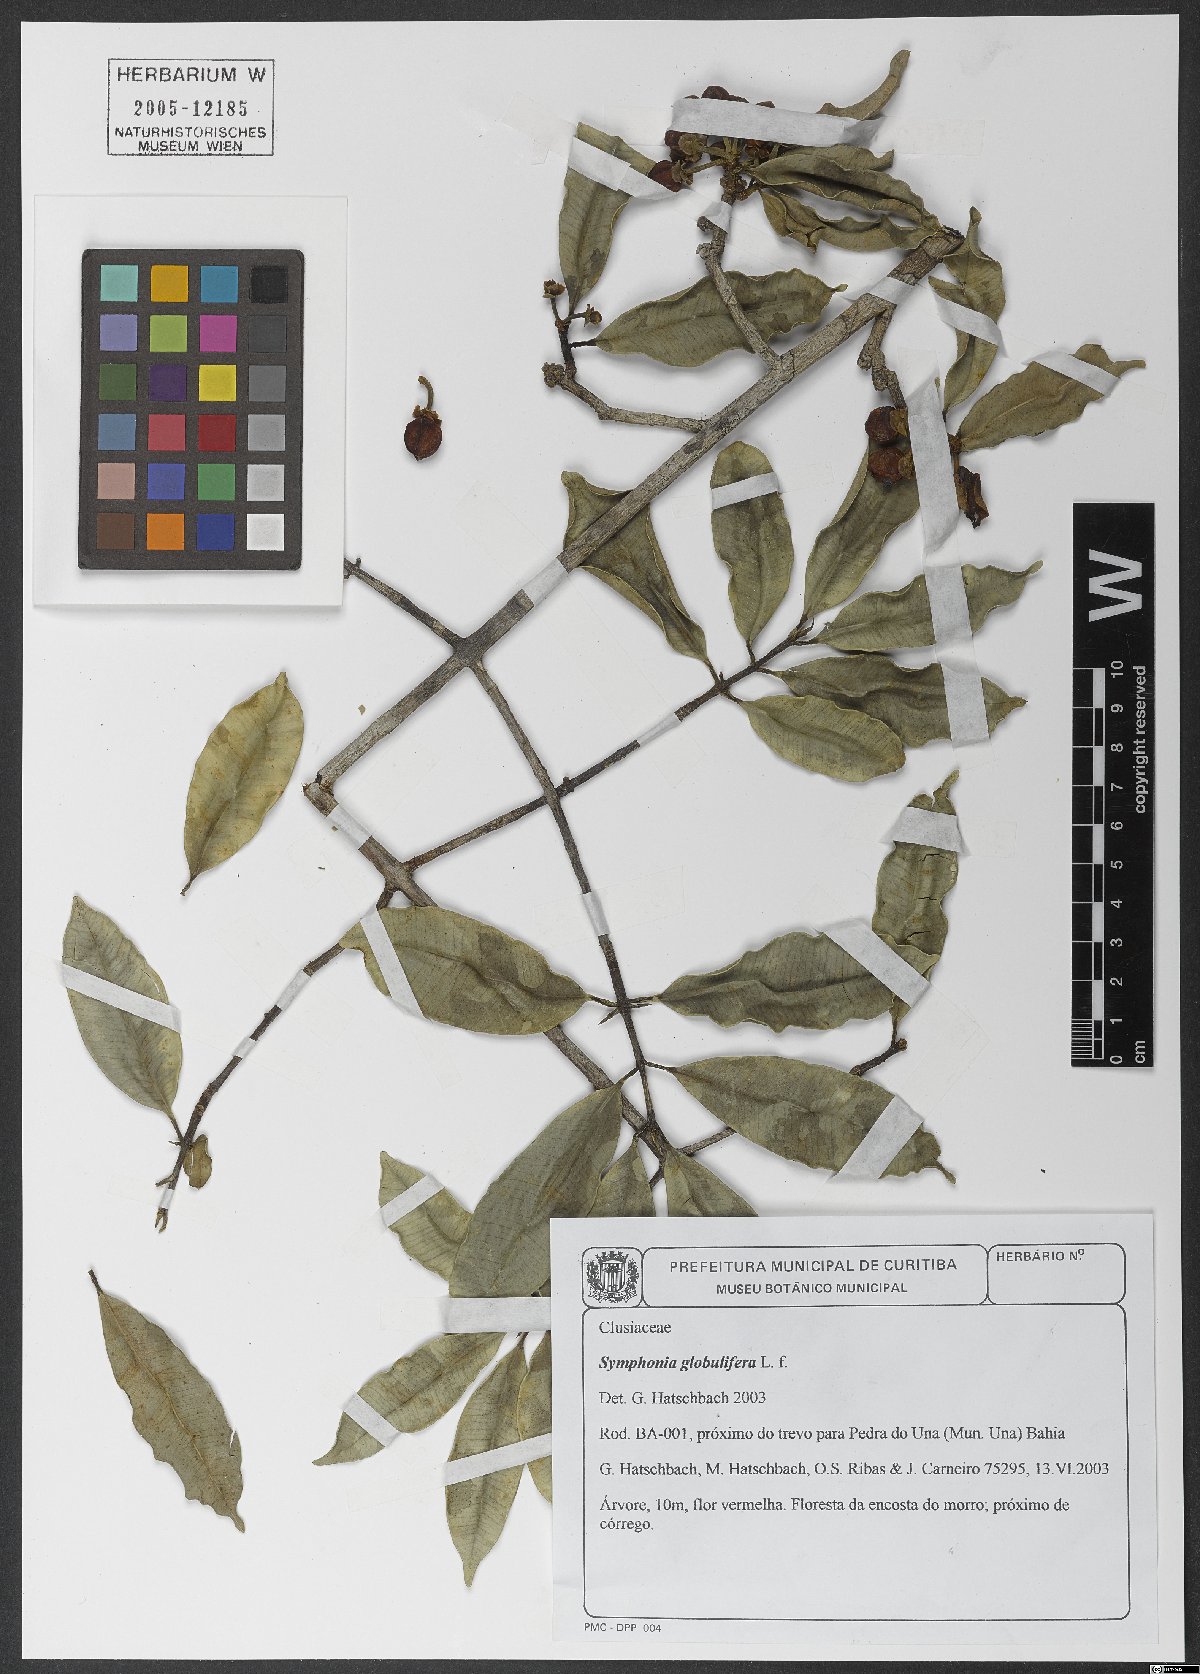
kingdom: Plantae
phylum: Tracheophyta
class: Magnoliopsida
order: Malpighiales
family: Clusiaceae
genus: Symphonia
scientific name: Symphonia globulifera
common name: Boarwood
